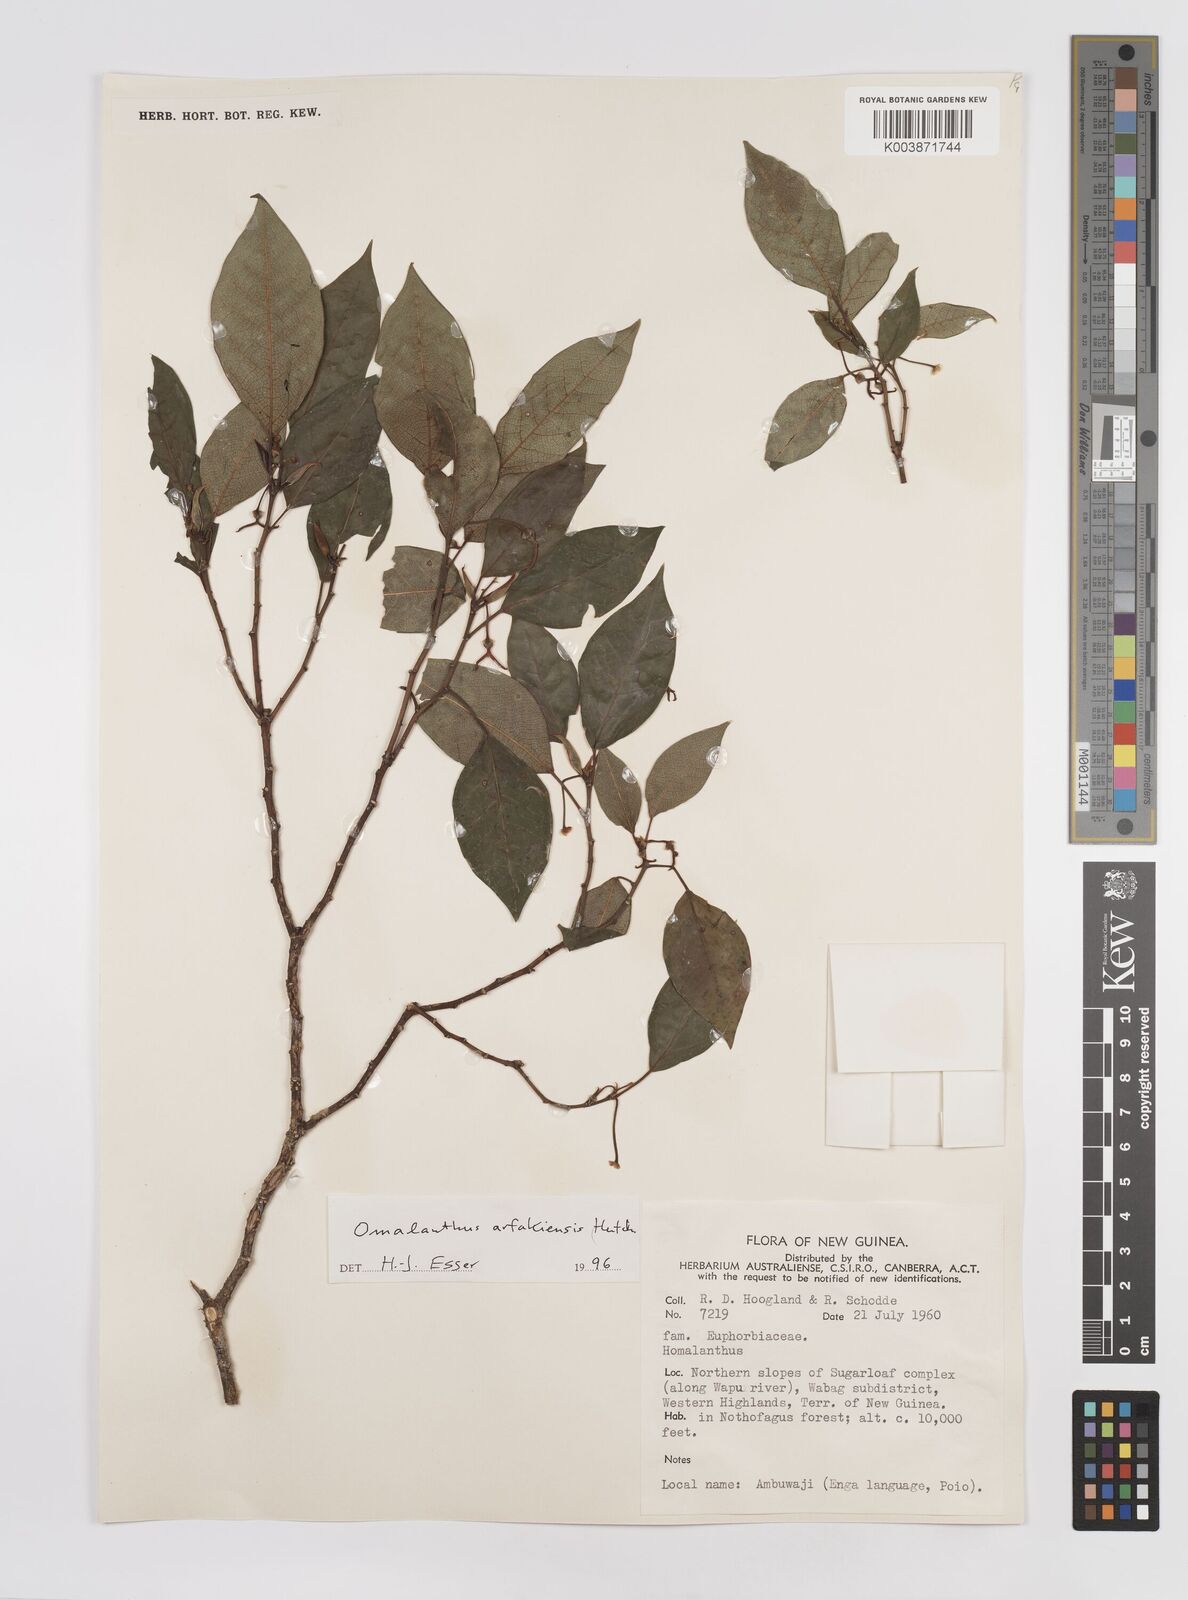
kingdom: Plantae
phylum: Tracheophyta
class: Magnoliopsida
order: Malpighiales
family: Euphorbiaceae
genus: Homalanthus
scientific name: Homalanthus arfakiensis
